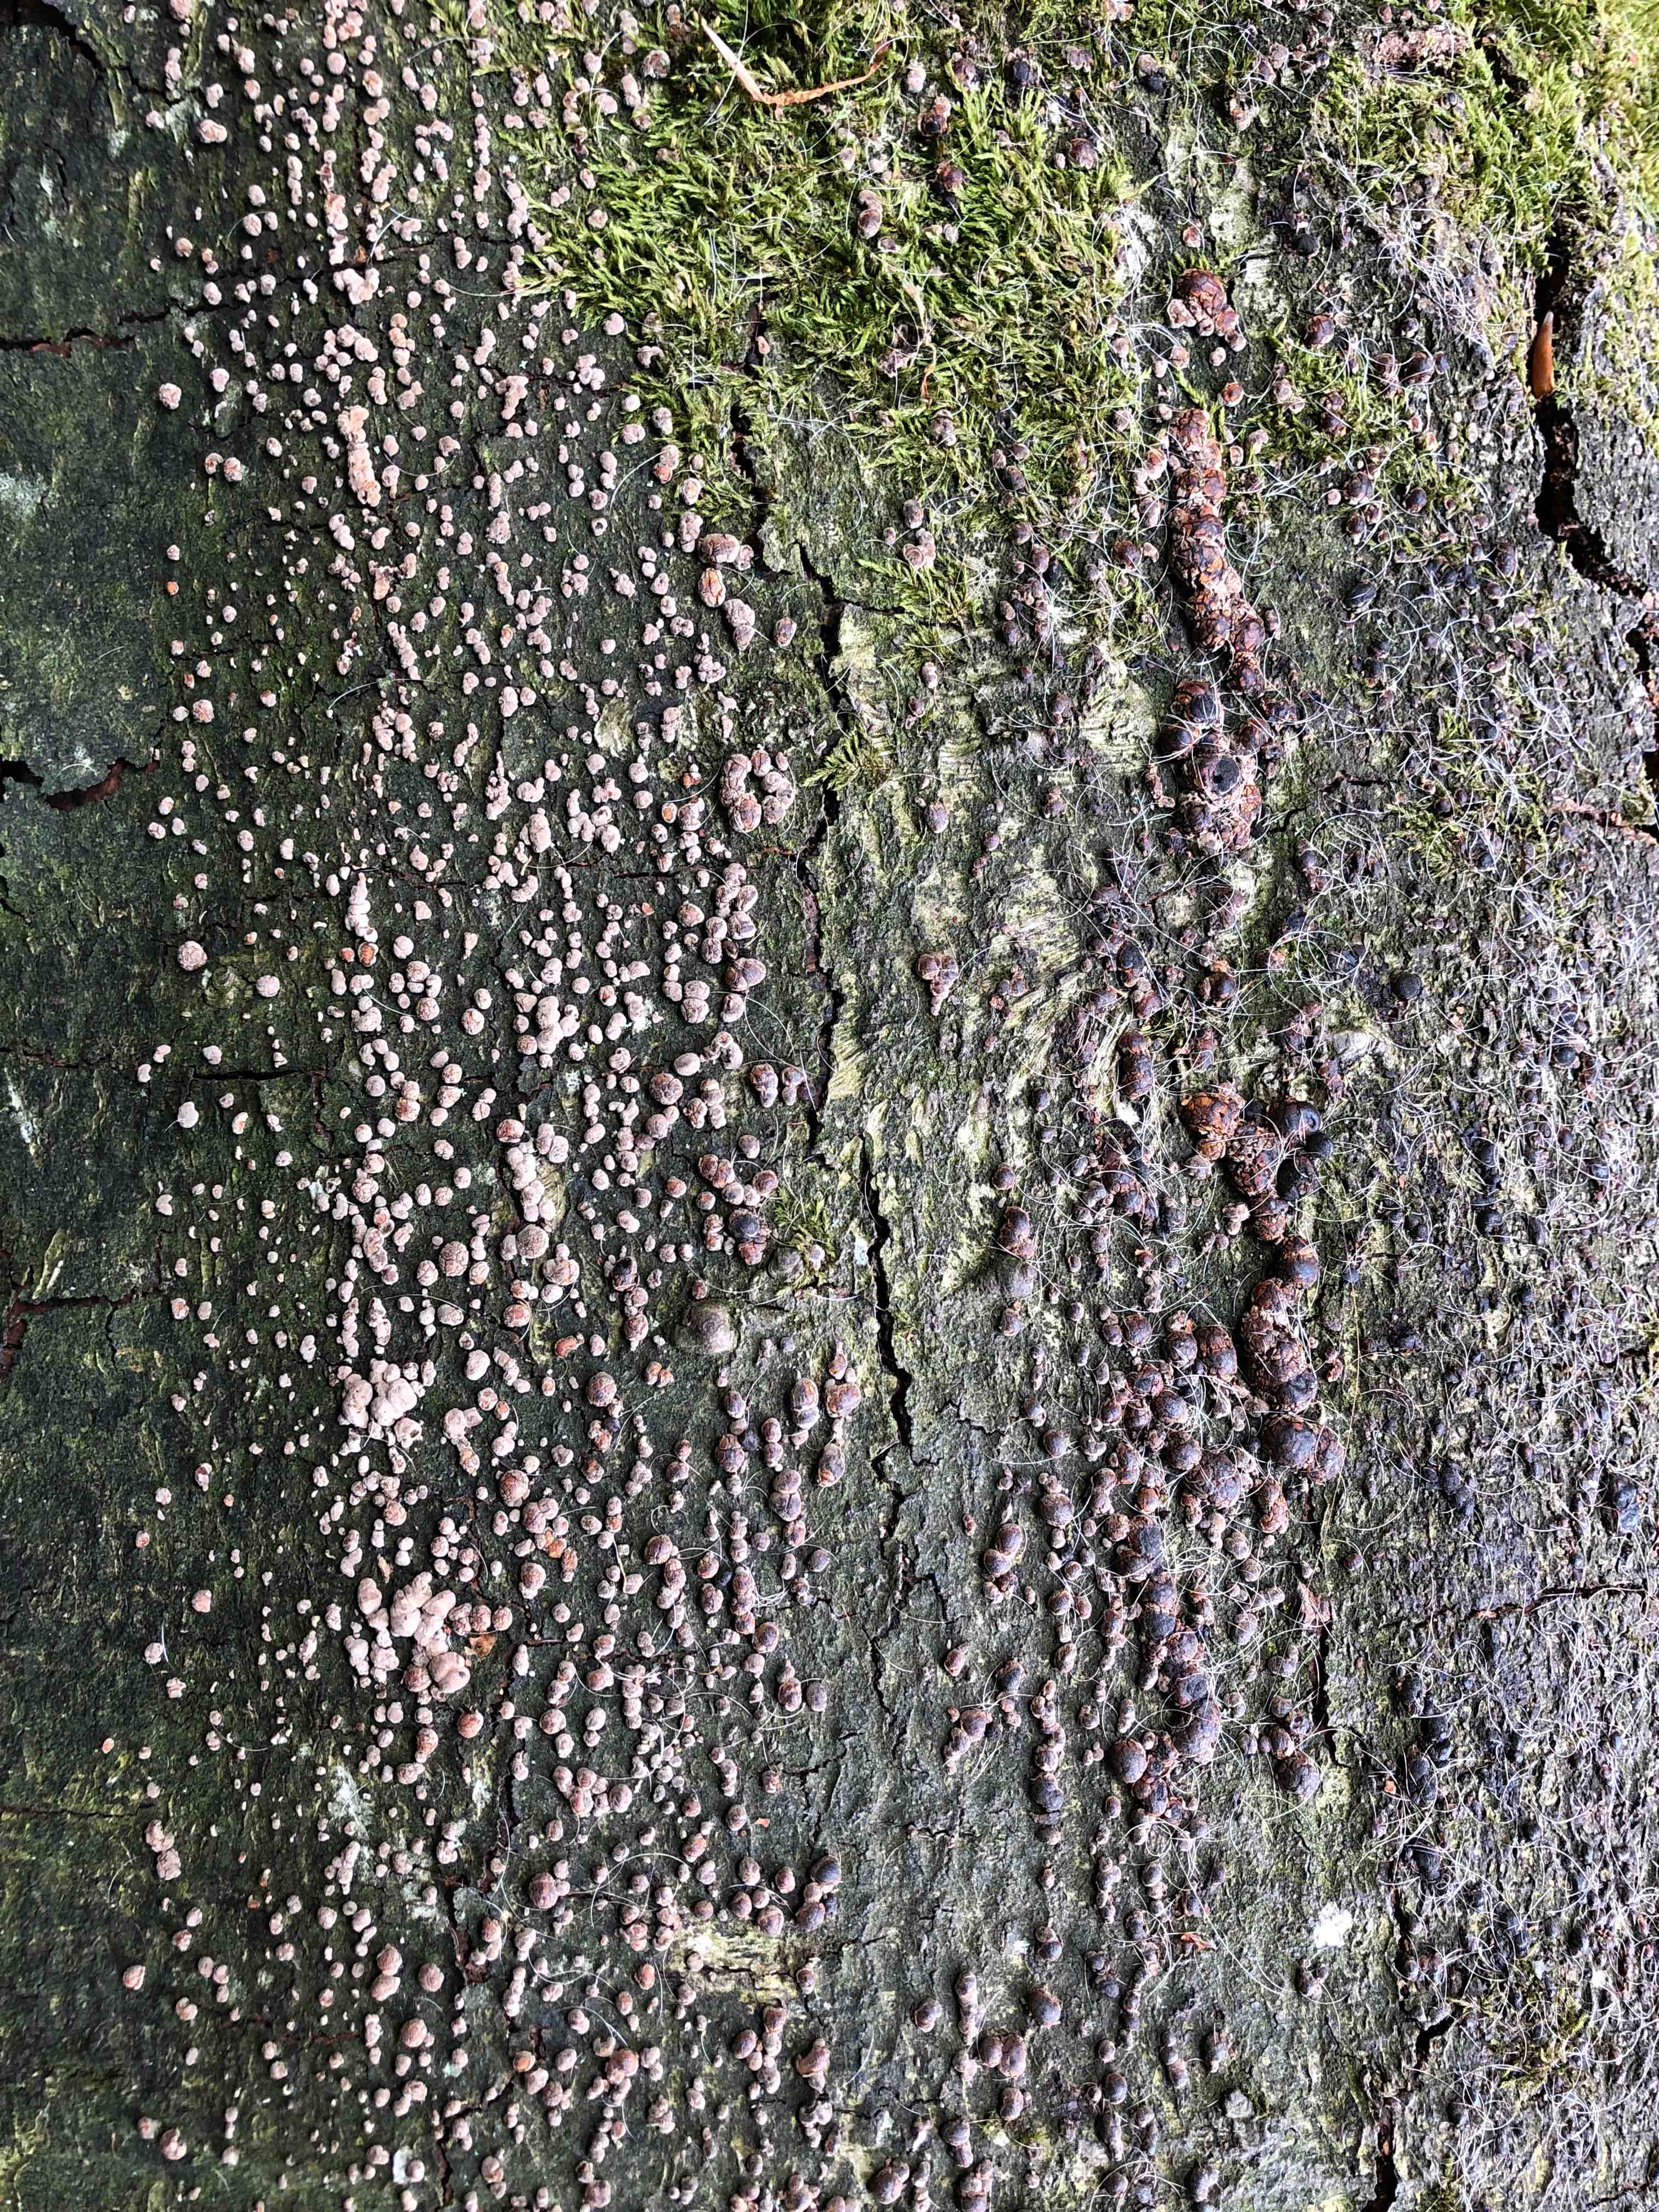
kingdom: Fungi
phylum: Ascomycota
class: Sordariomycetes
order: Xylariales
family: Hypoxylaceae
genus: Hypoxylon
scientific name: Hypoxylon fragiforme
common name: kuljordbær
